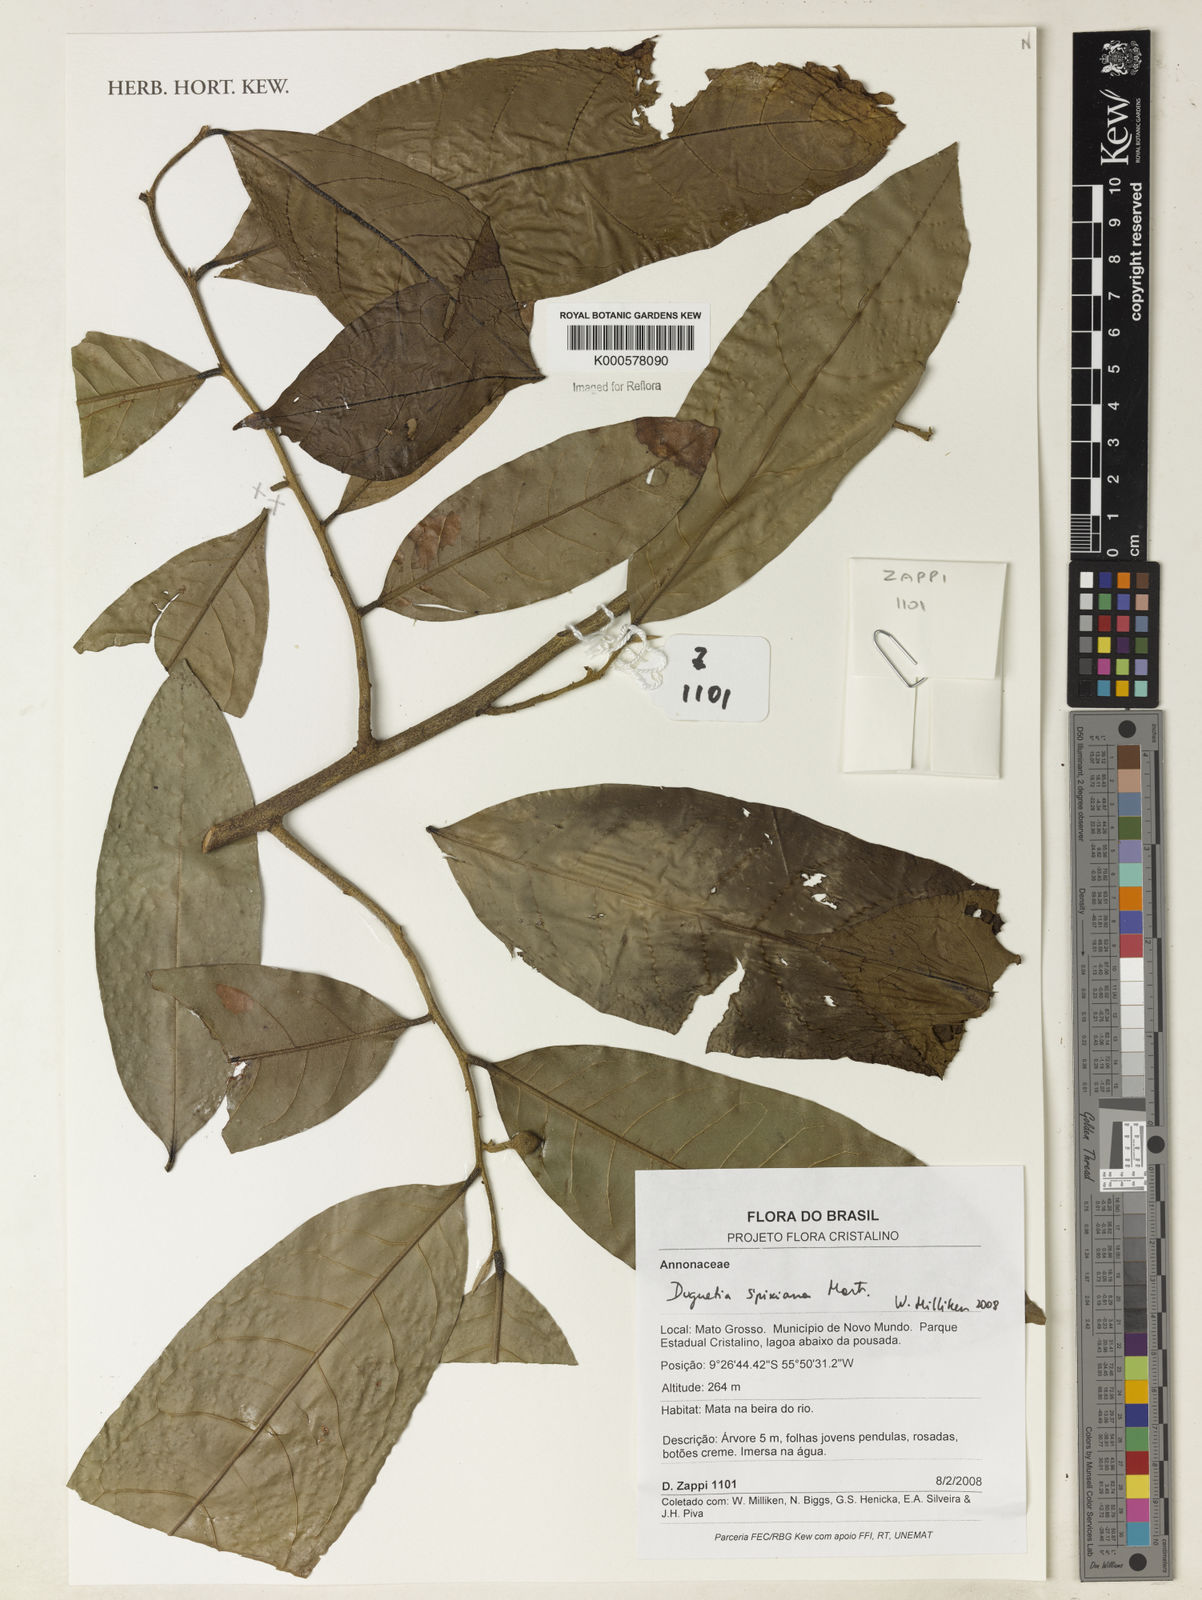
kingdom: Plantae
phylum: Tracheophyta
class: Magnoliopsida
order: Magnoliales
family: Annonaceae
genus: Duguetia
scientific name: Duguetia spixiana
